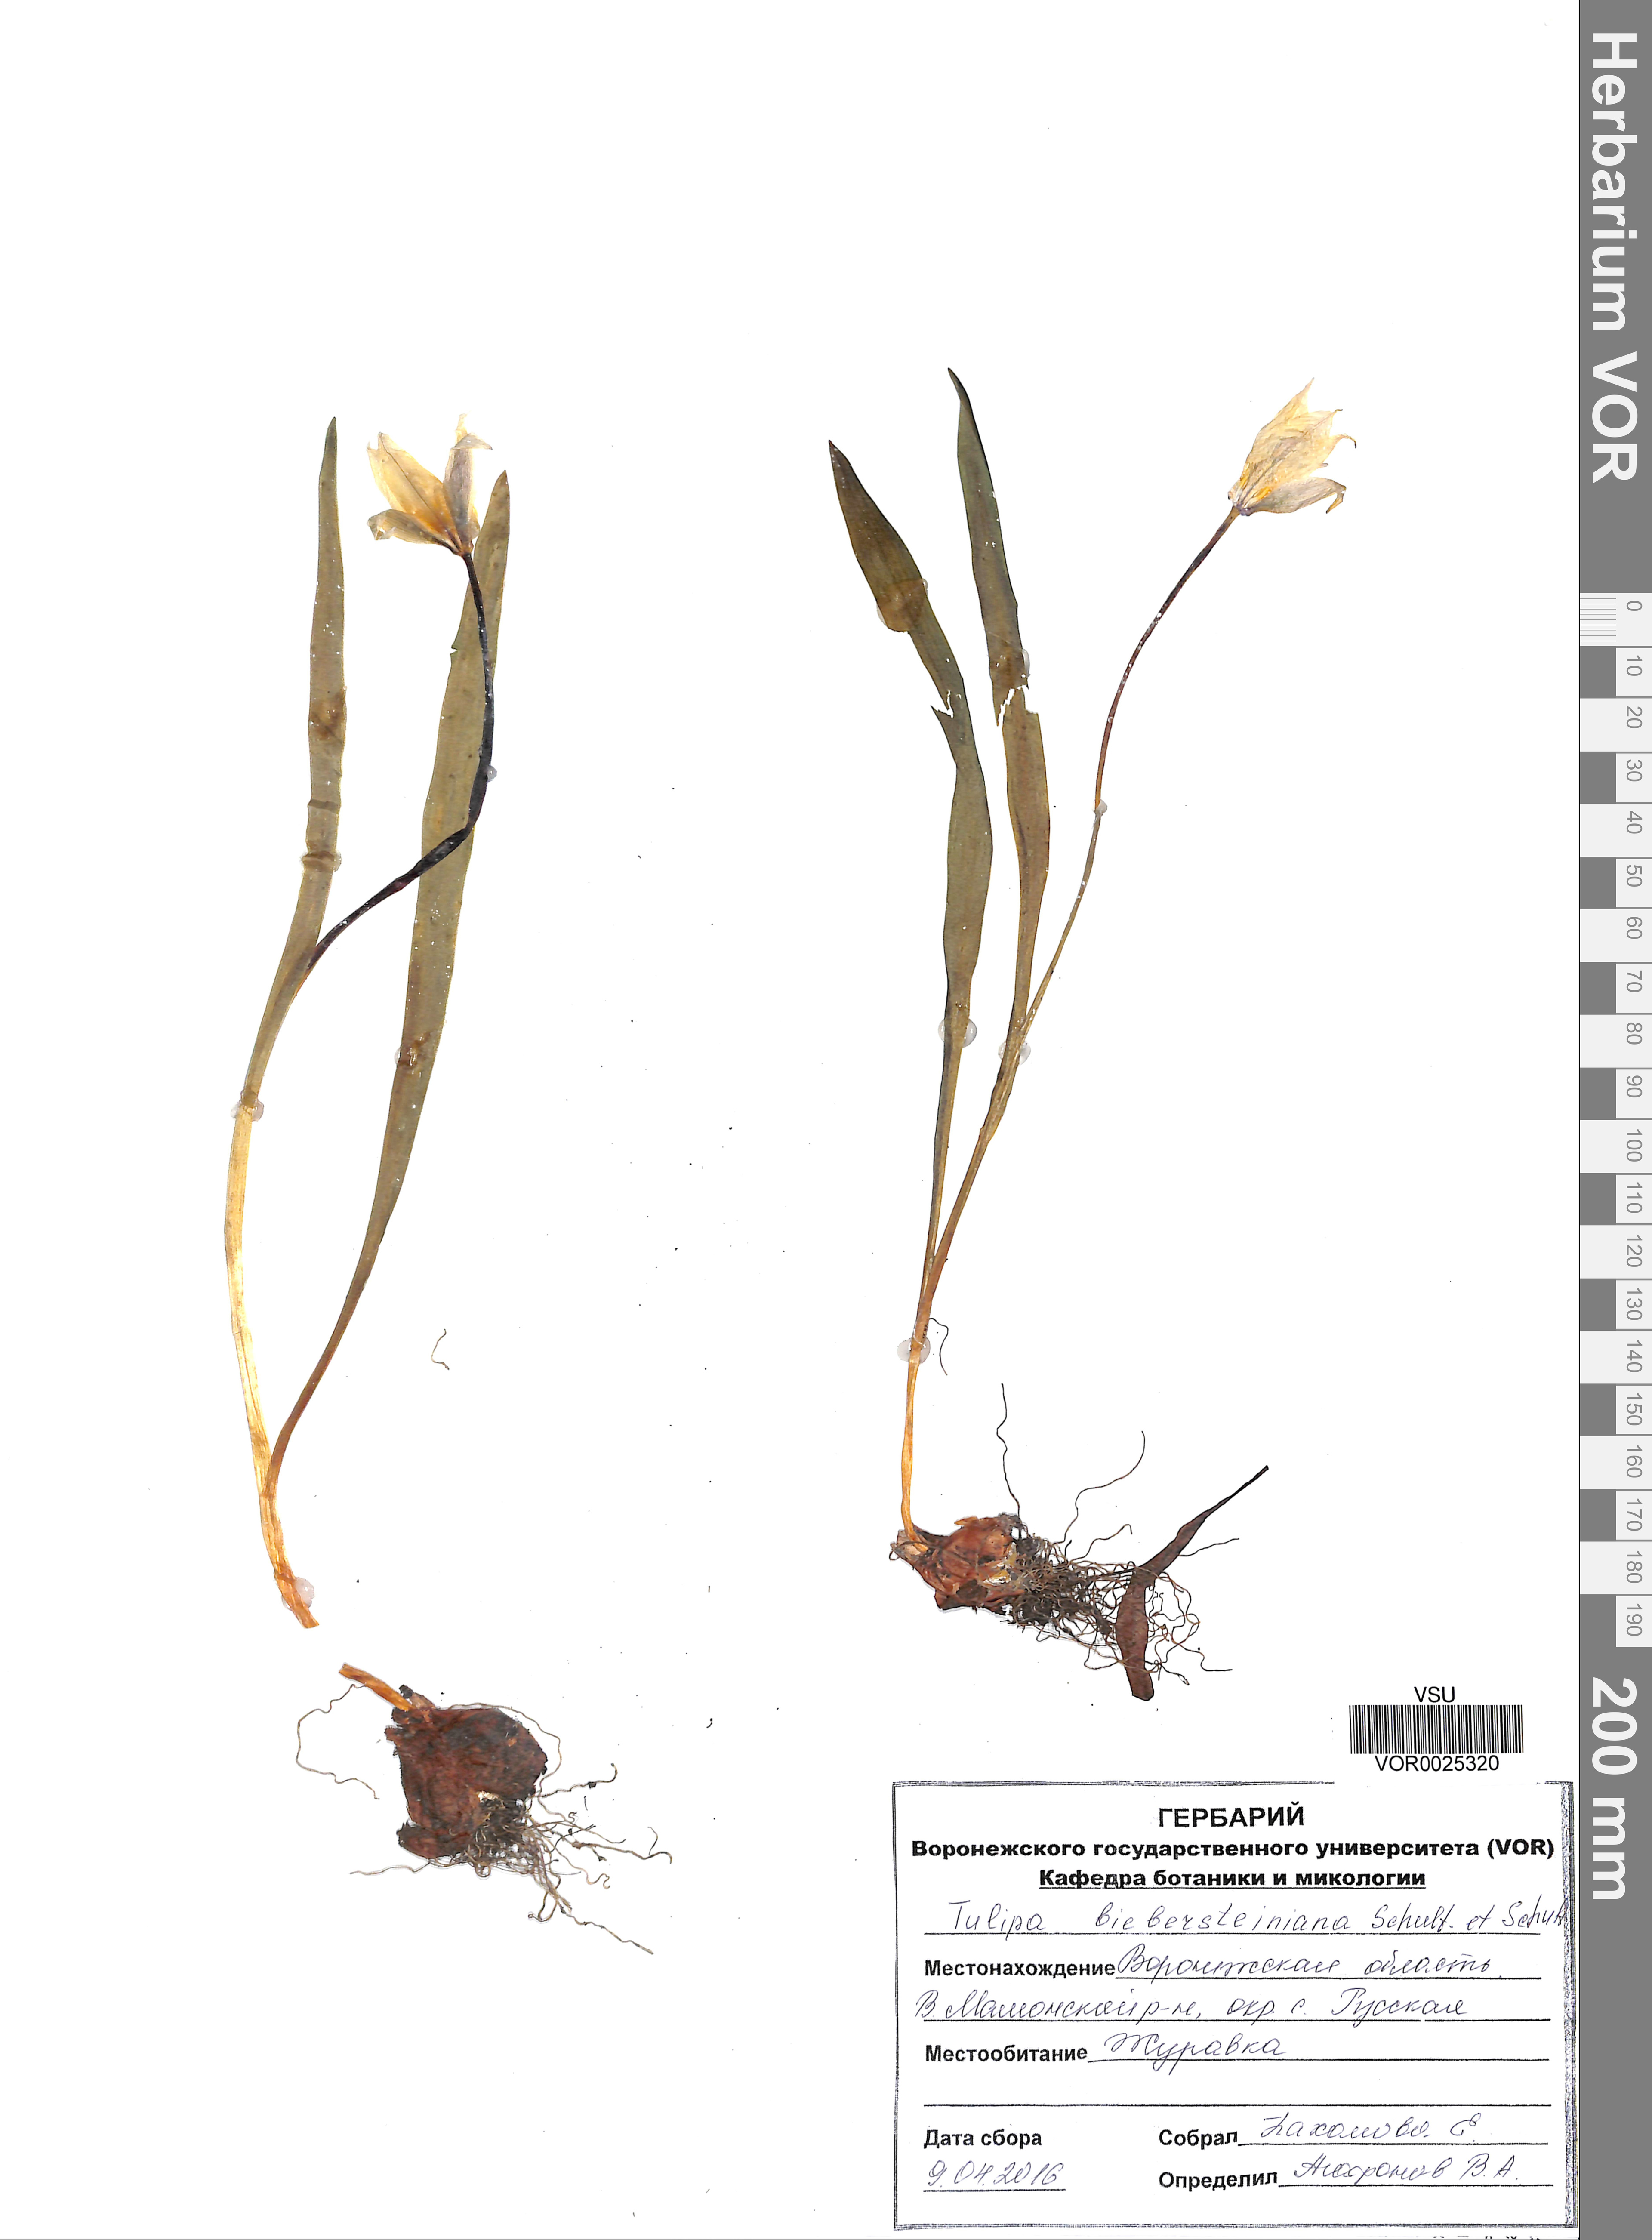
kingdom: Plantae
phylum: Tracheophyta
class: Liliopsida
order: Liliales
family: Liliaceae
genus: Tulipa
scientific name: Tulipa sylvestris
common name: Wild tulip
